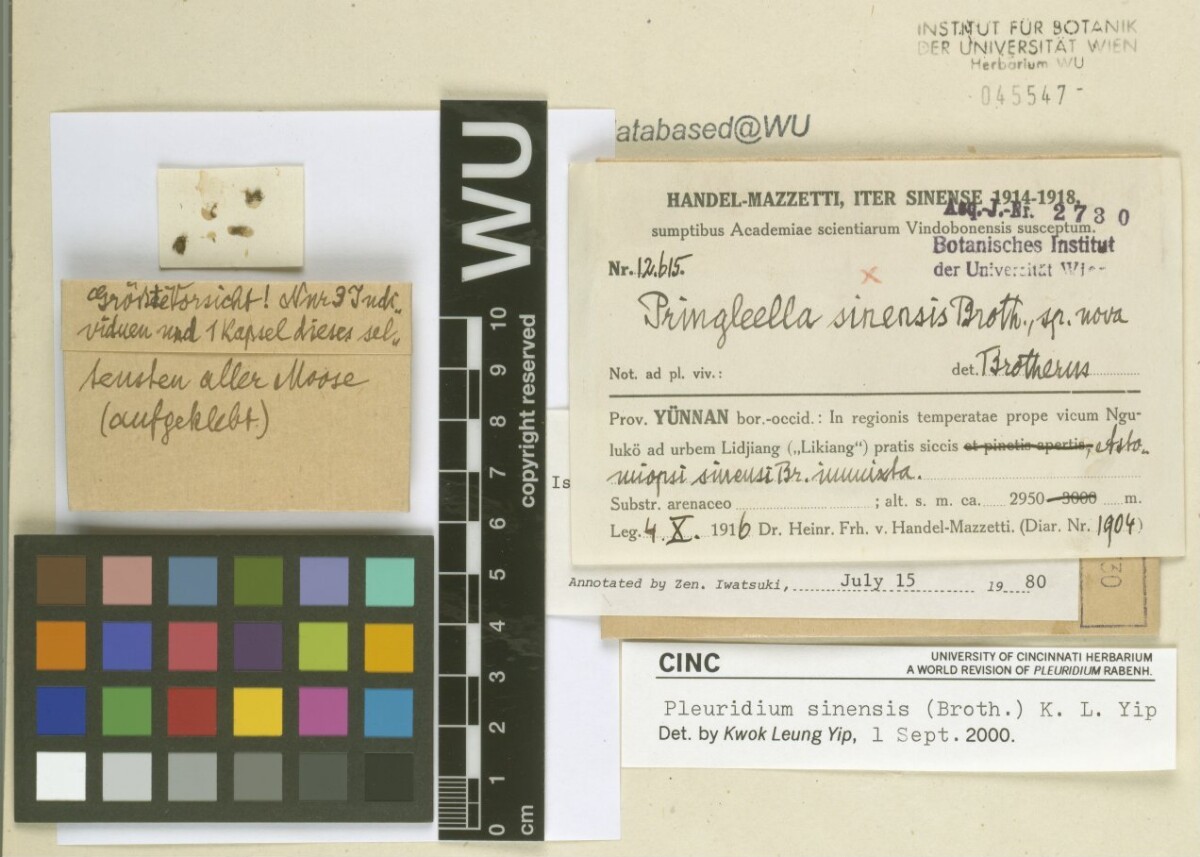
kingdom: Plantae
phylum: Bryophyta
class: Bryopsida
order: Dicranales
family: Bruchiaceae
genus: Pringleella
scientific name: Pringleella sinensis
